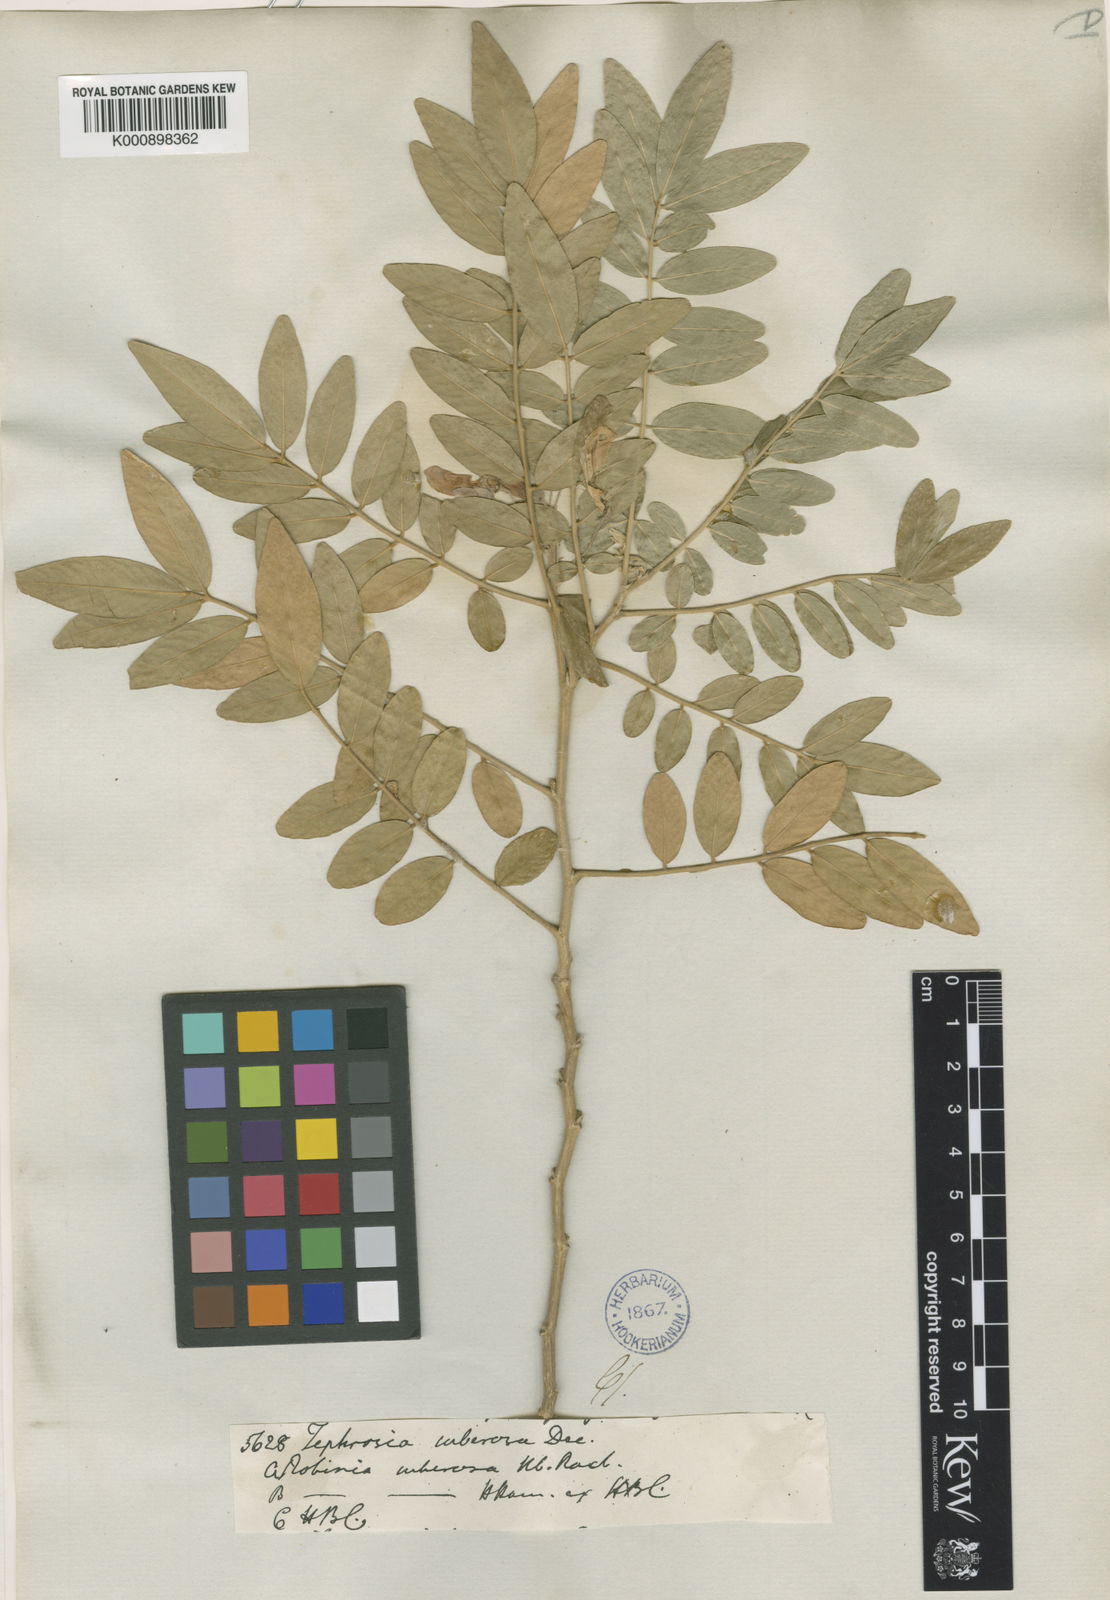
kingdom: Plantae
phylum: Tracheophyta
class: Magnoliopsida
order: Fabales
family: Fabaceae
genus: Mundulea
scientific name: Mundulea sericea
